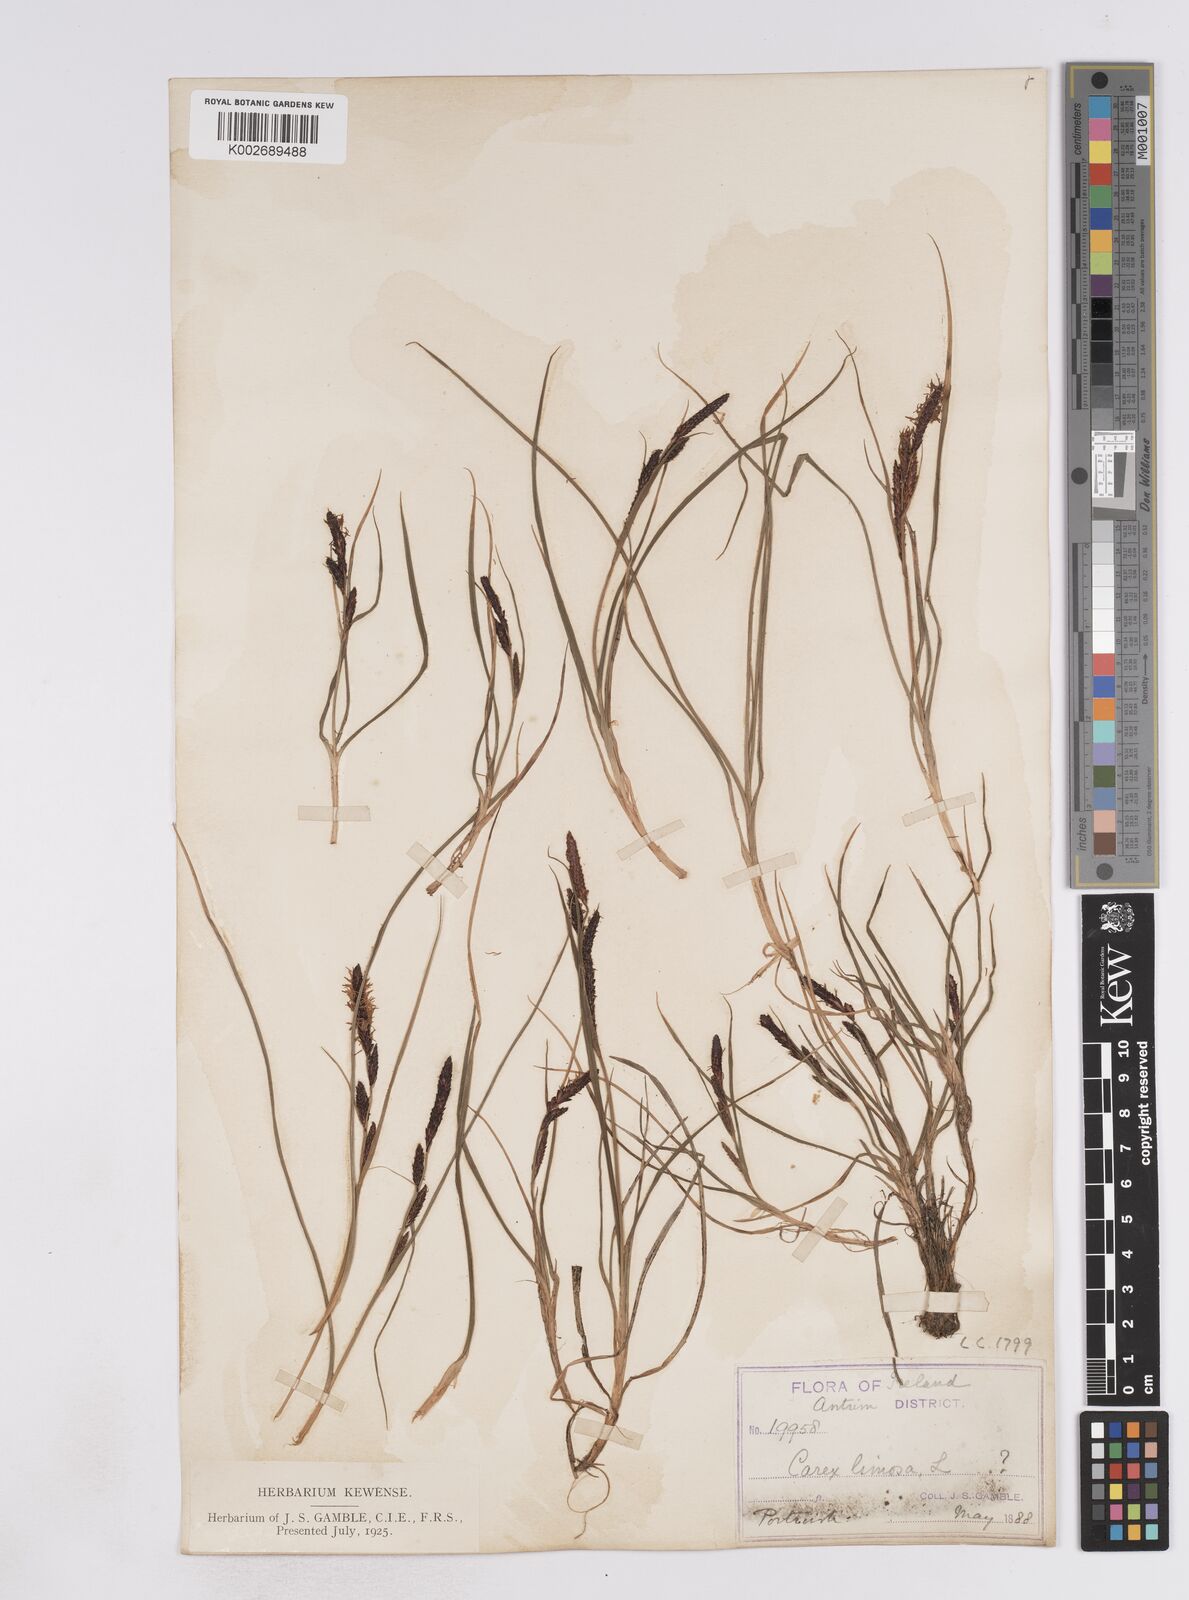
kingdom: Plantae
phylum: Tracheophyta
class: Liliopsida
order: Poales
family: Cyperaceae
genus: Carex
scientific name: Carex flacca
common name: Glaucous sedge
